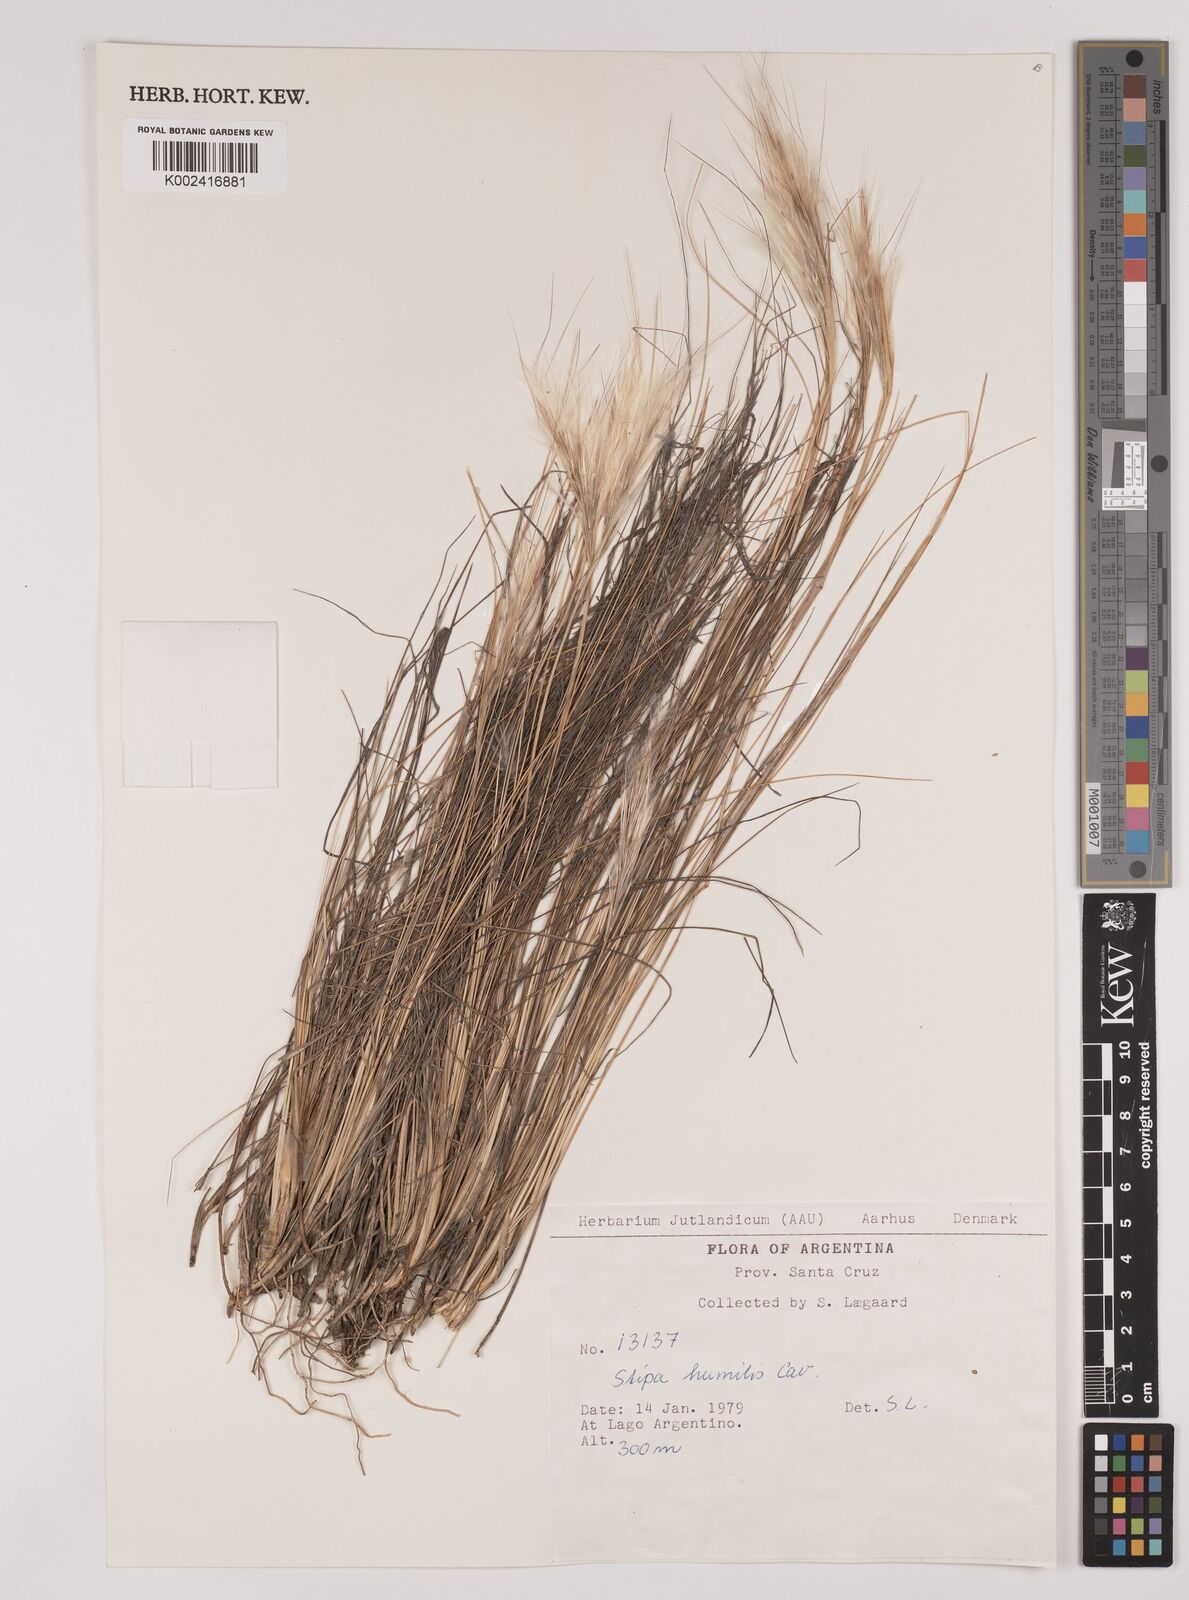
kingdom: Plantae
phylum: Tracheophyta
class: Liliopsida
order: Poales
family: Poaceae
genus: Pappostipa
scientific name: Pappostipa humilis
